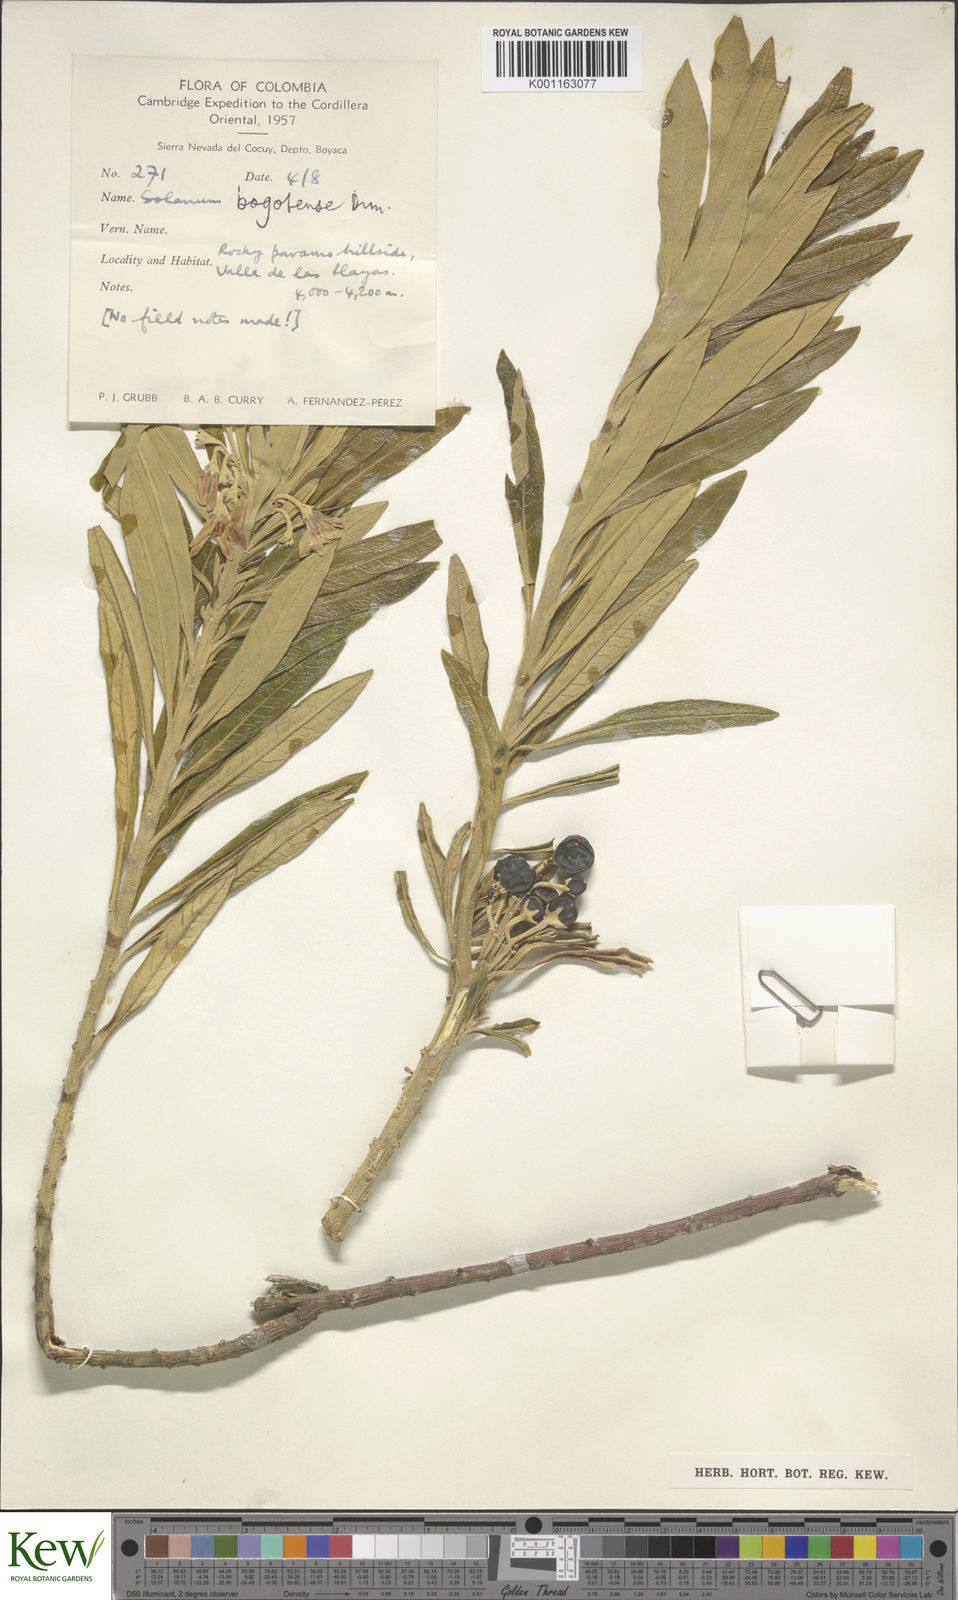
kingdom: Plantae
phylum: Tracheophyta
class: Magnoliopsida
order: Solanales
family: Solanaceae
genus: Solanum
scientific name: Solanum stenophyllum
